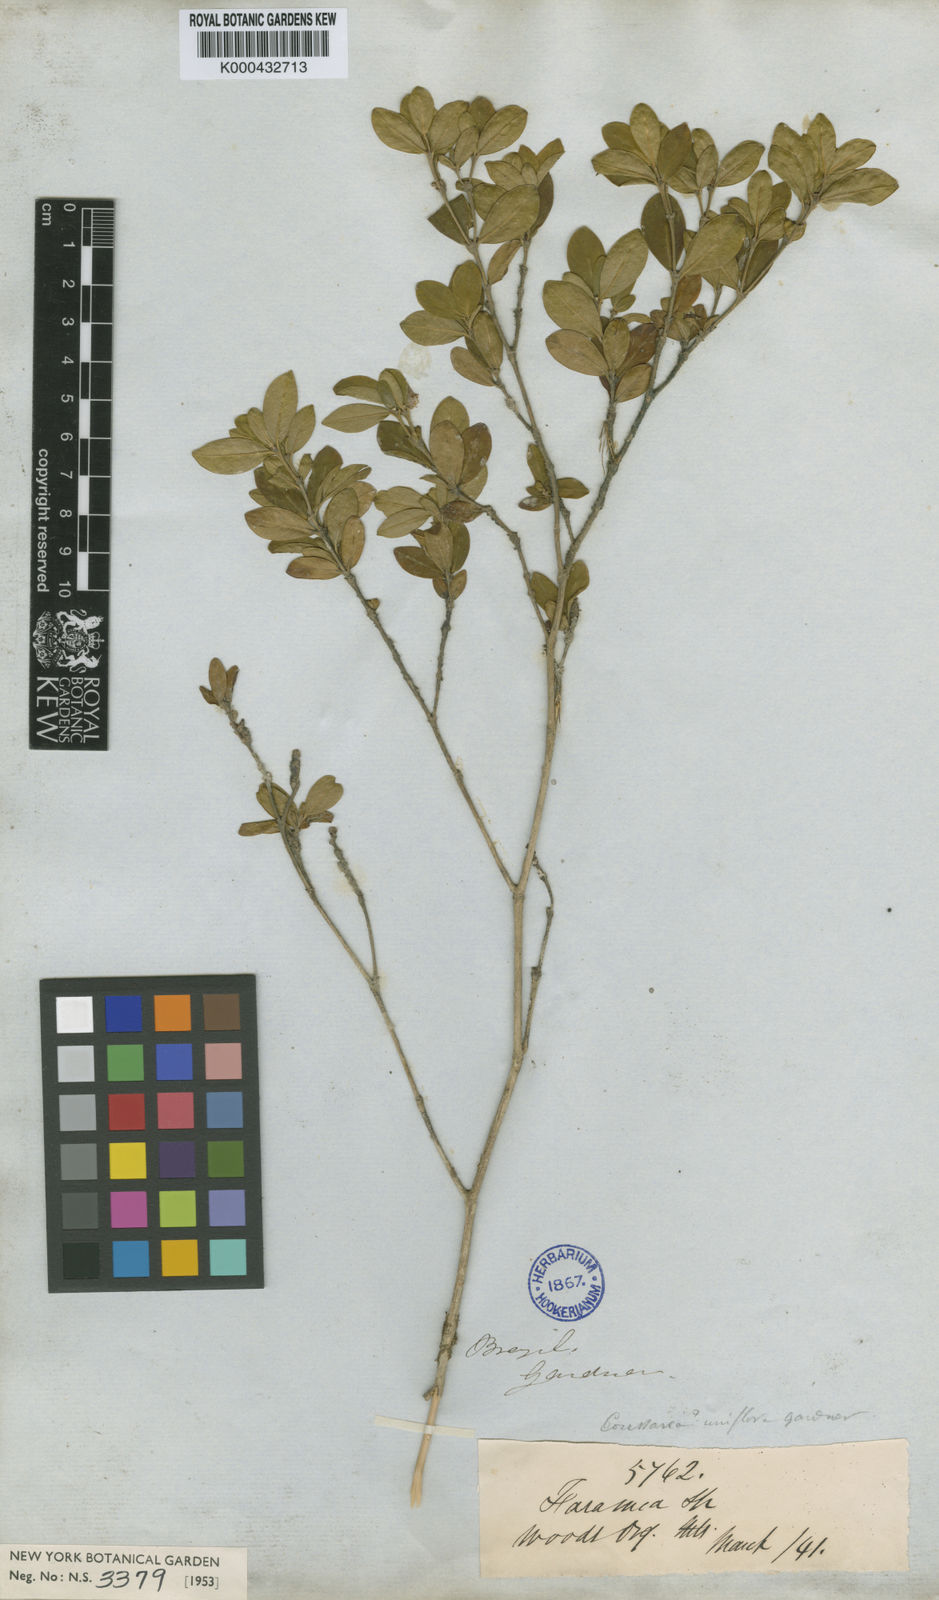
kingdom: Plantae
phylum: Tracheophyta
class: Magnoliopsida
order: Gentianales
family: Rubiaceae
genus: Coussarea
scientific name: Coussarea uniflora
